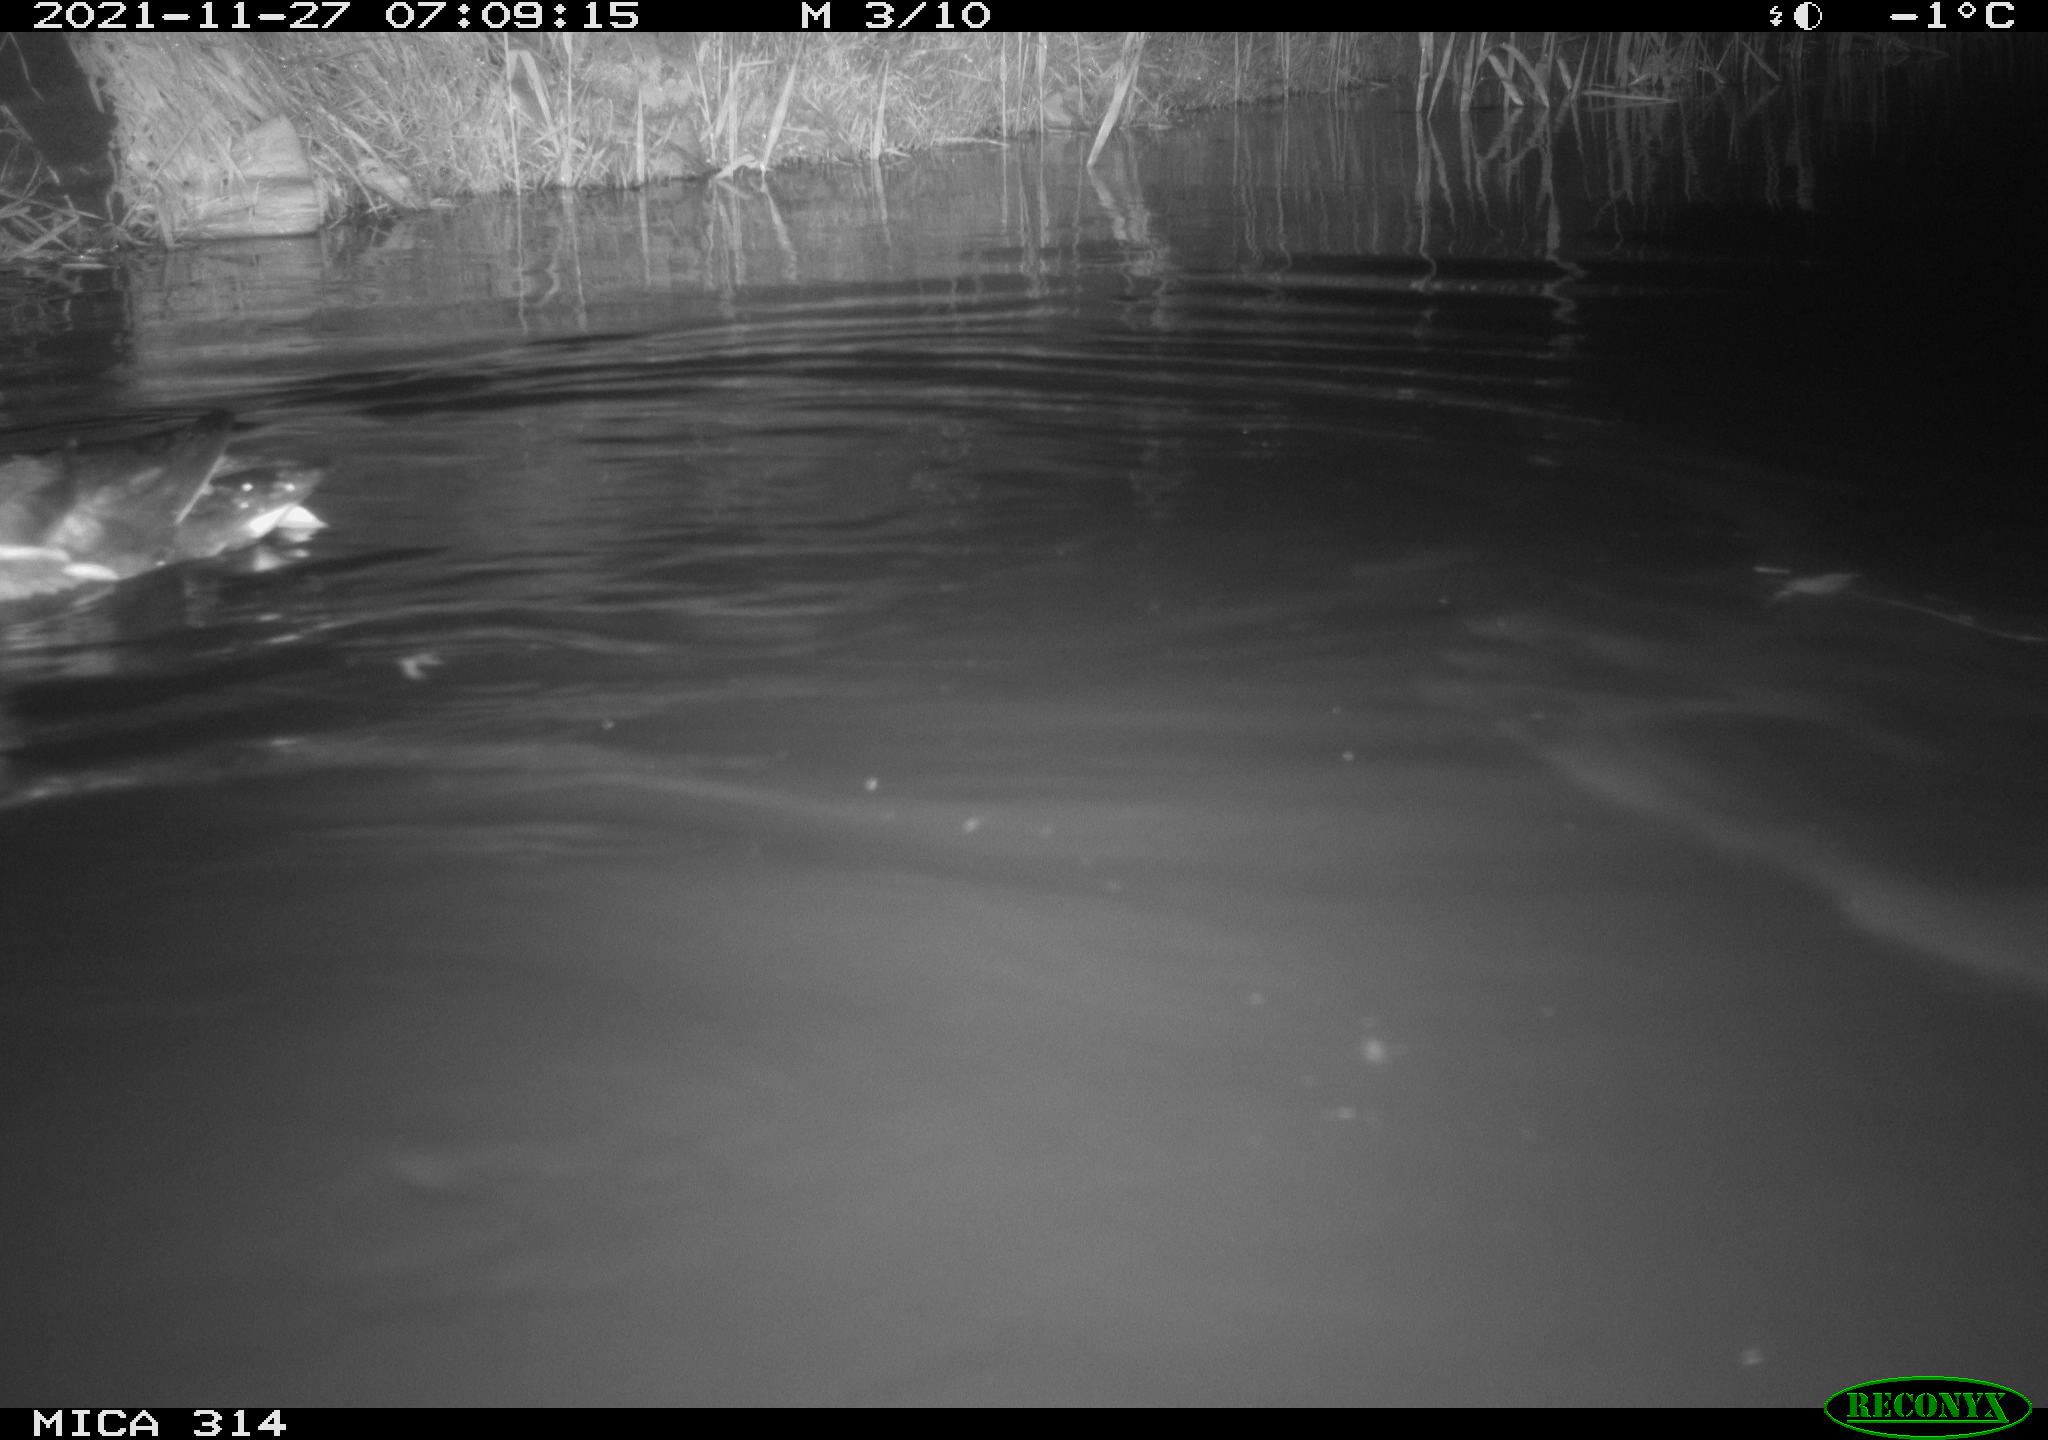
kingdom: Animalia
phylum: Chordata
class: Aves
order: Anseriformes
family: Anatidae
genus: Mareca
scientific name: Mareca strepera
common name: Gadwall
